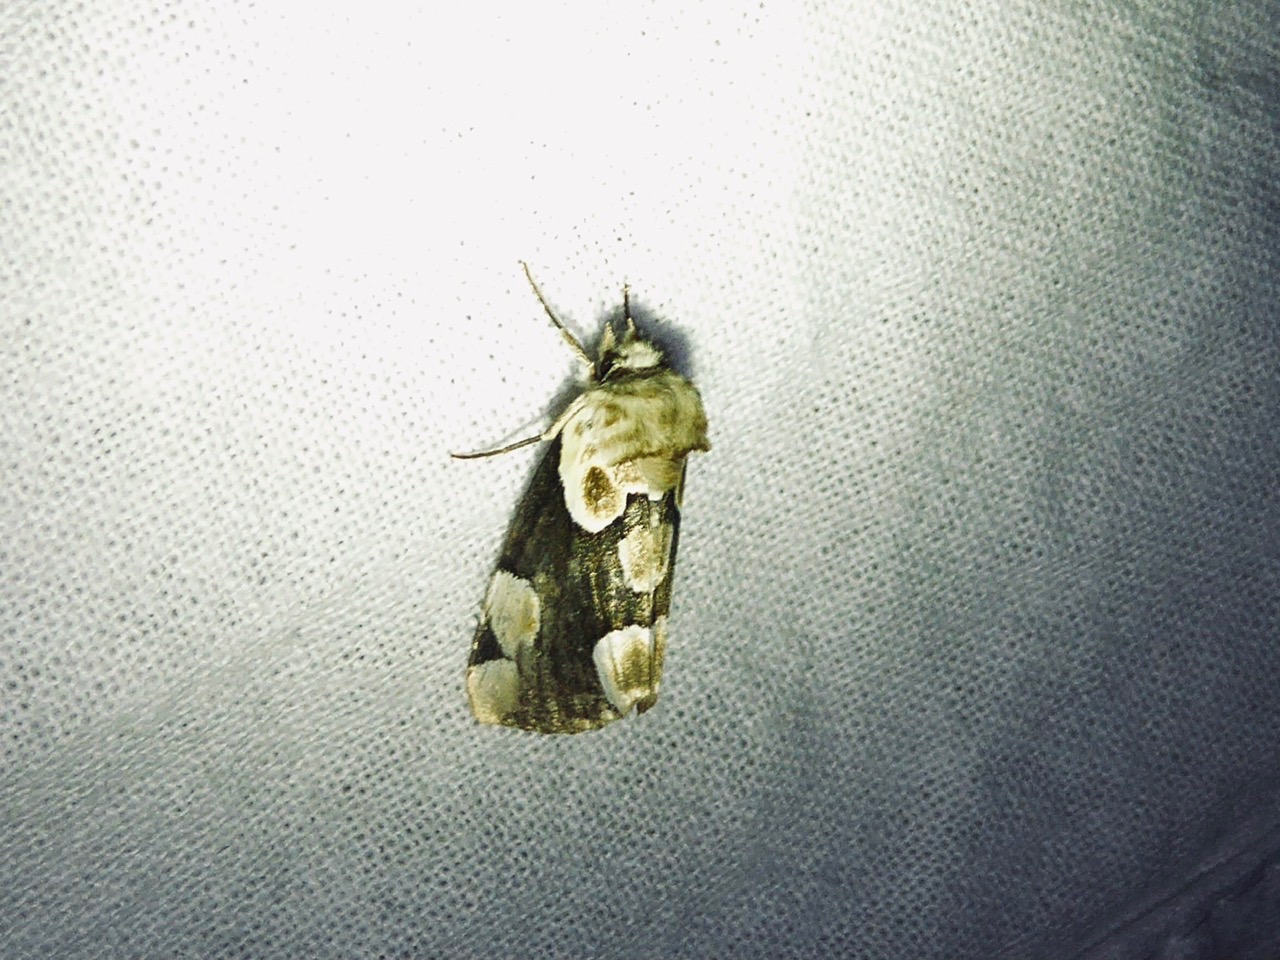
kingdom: Animalia
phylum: Arthropoda
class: Insecta
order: Lepidoptera
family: Drepanidae
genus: Thyatira
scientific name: Thyatira batis
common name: Rosenplet
